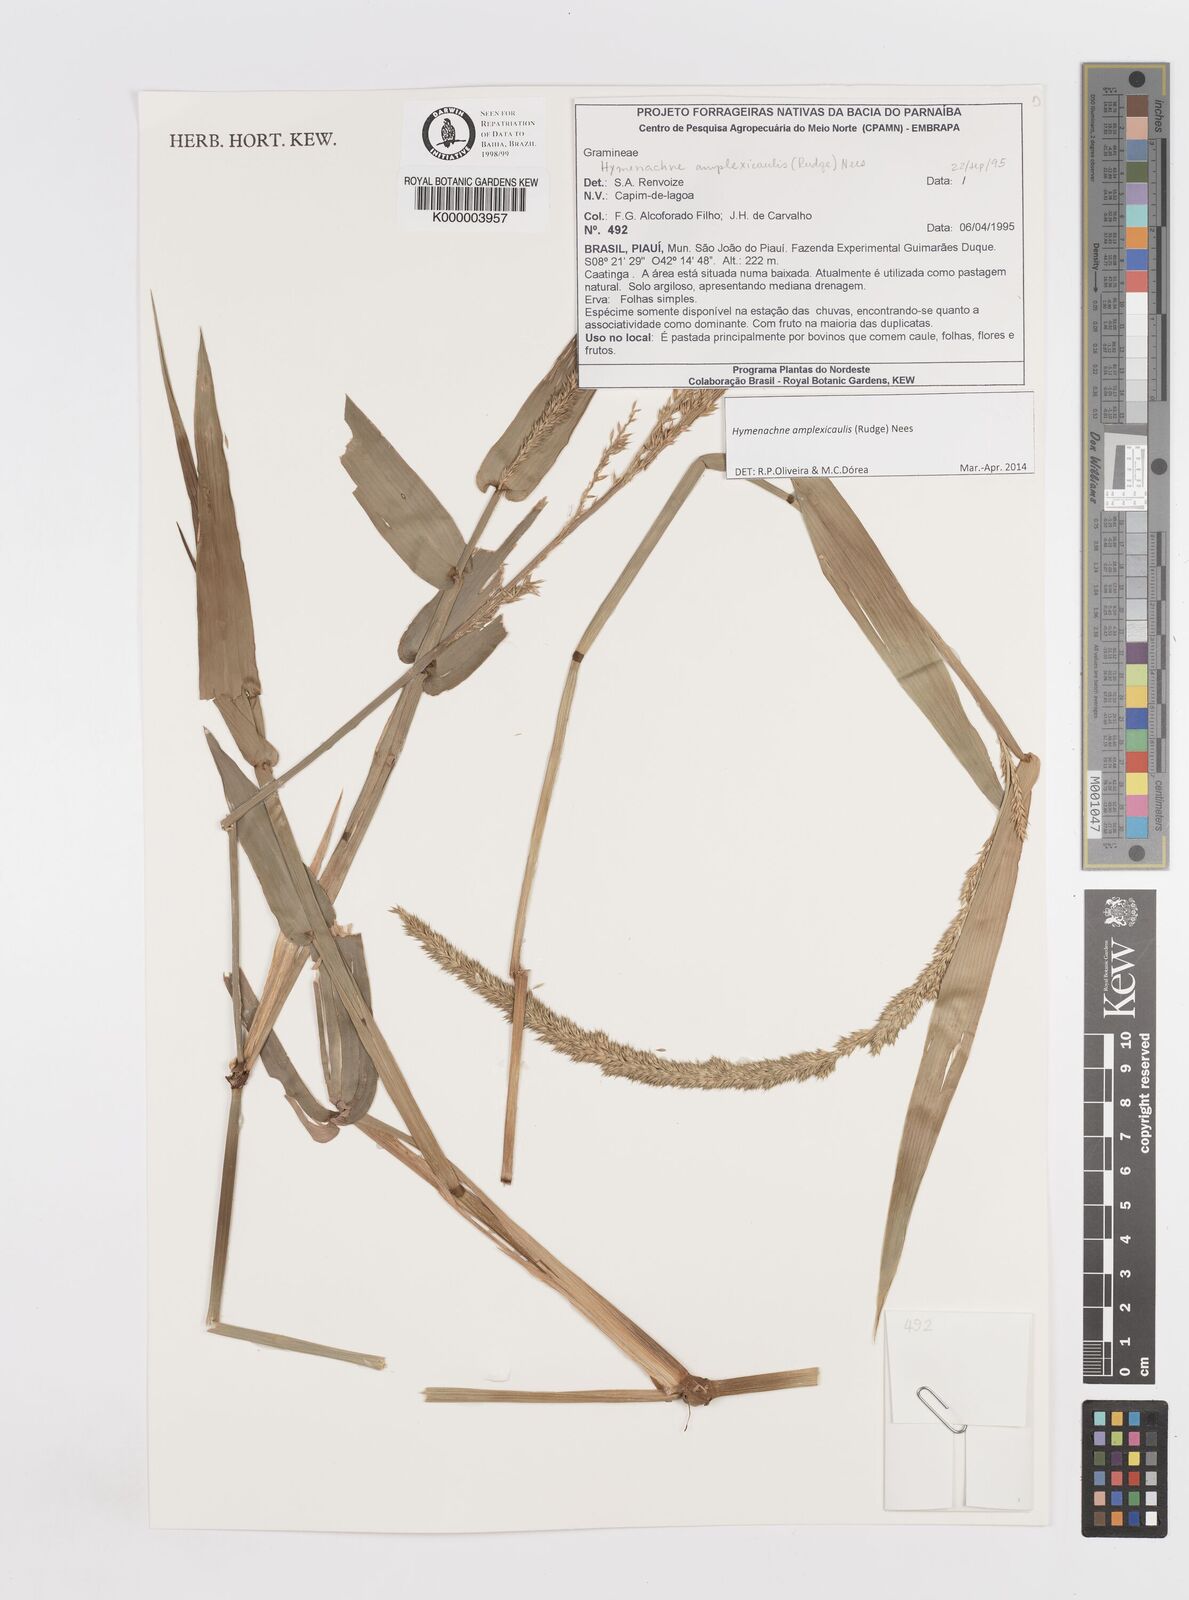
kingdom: Plantae
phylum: Tracheophyta
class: Liliopsida
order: Poales
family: Poaceae
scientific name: Poaceae
